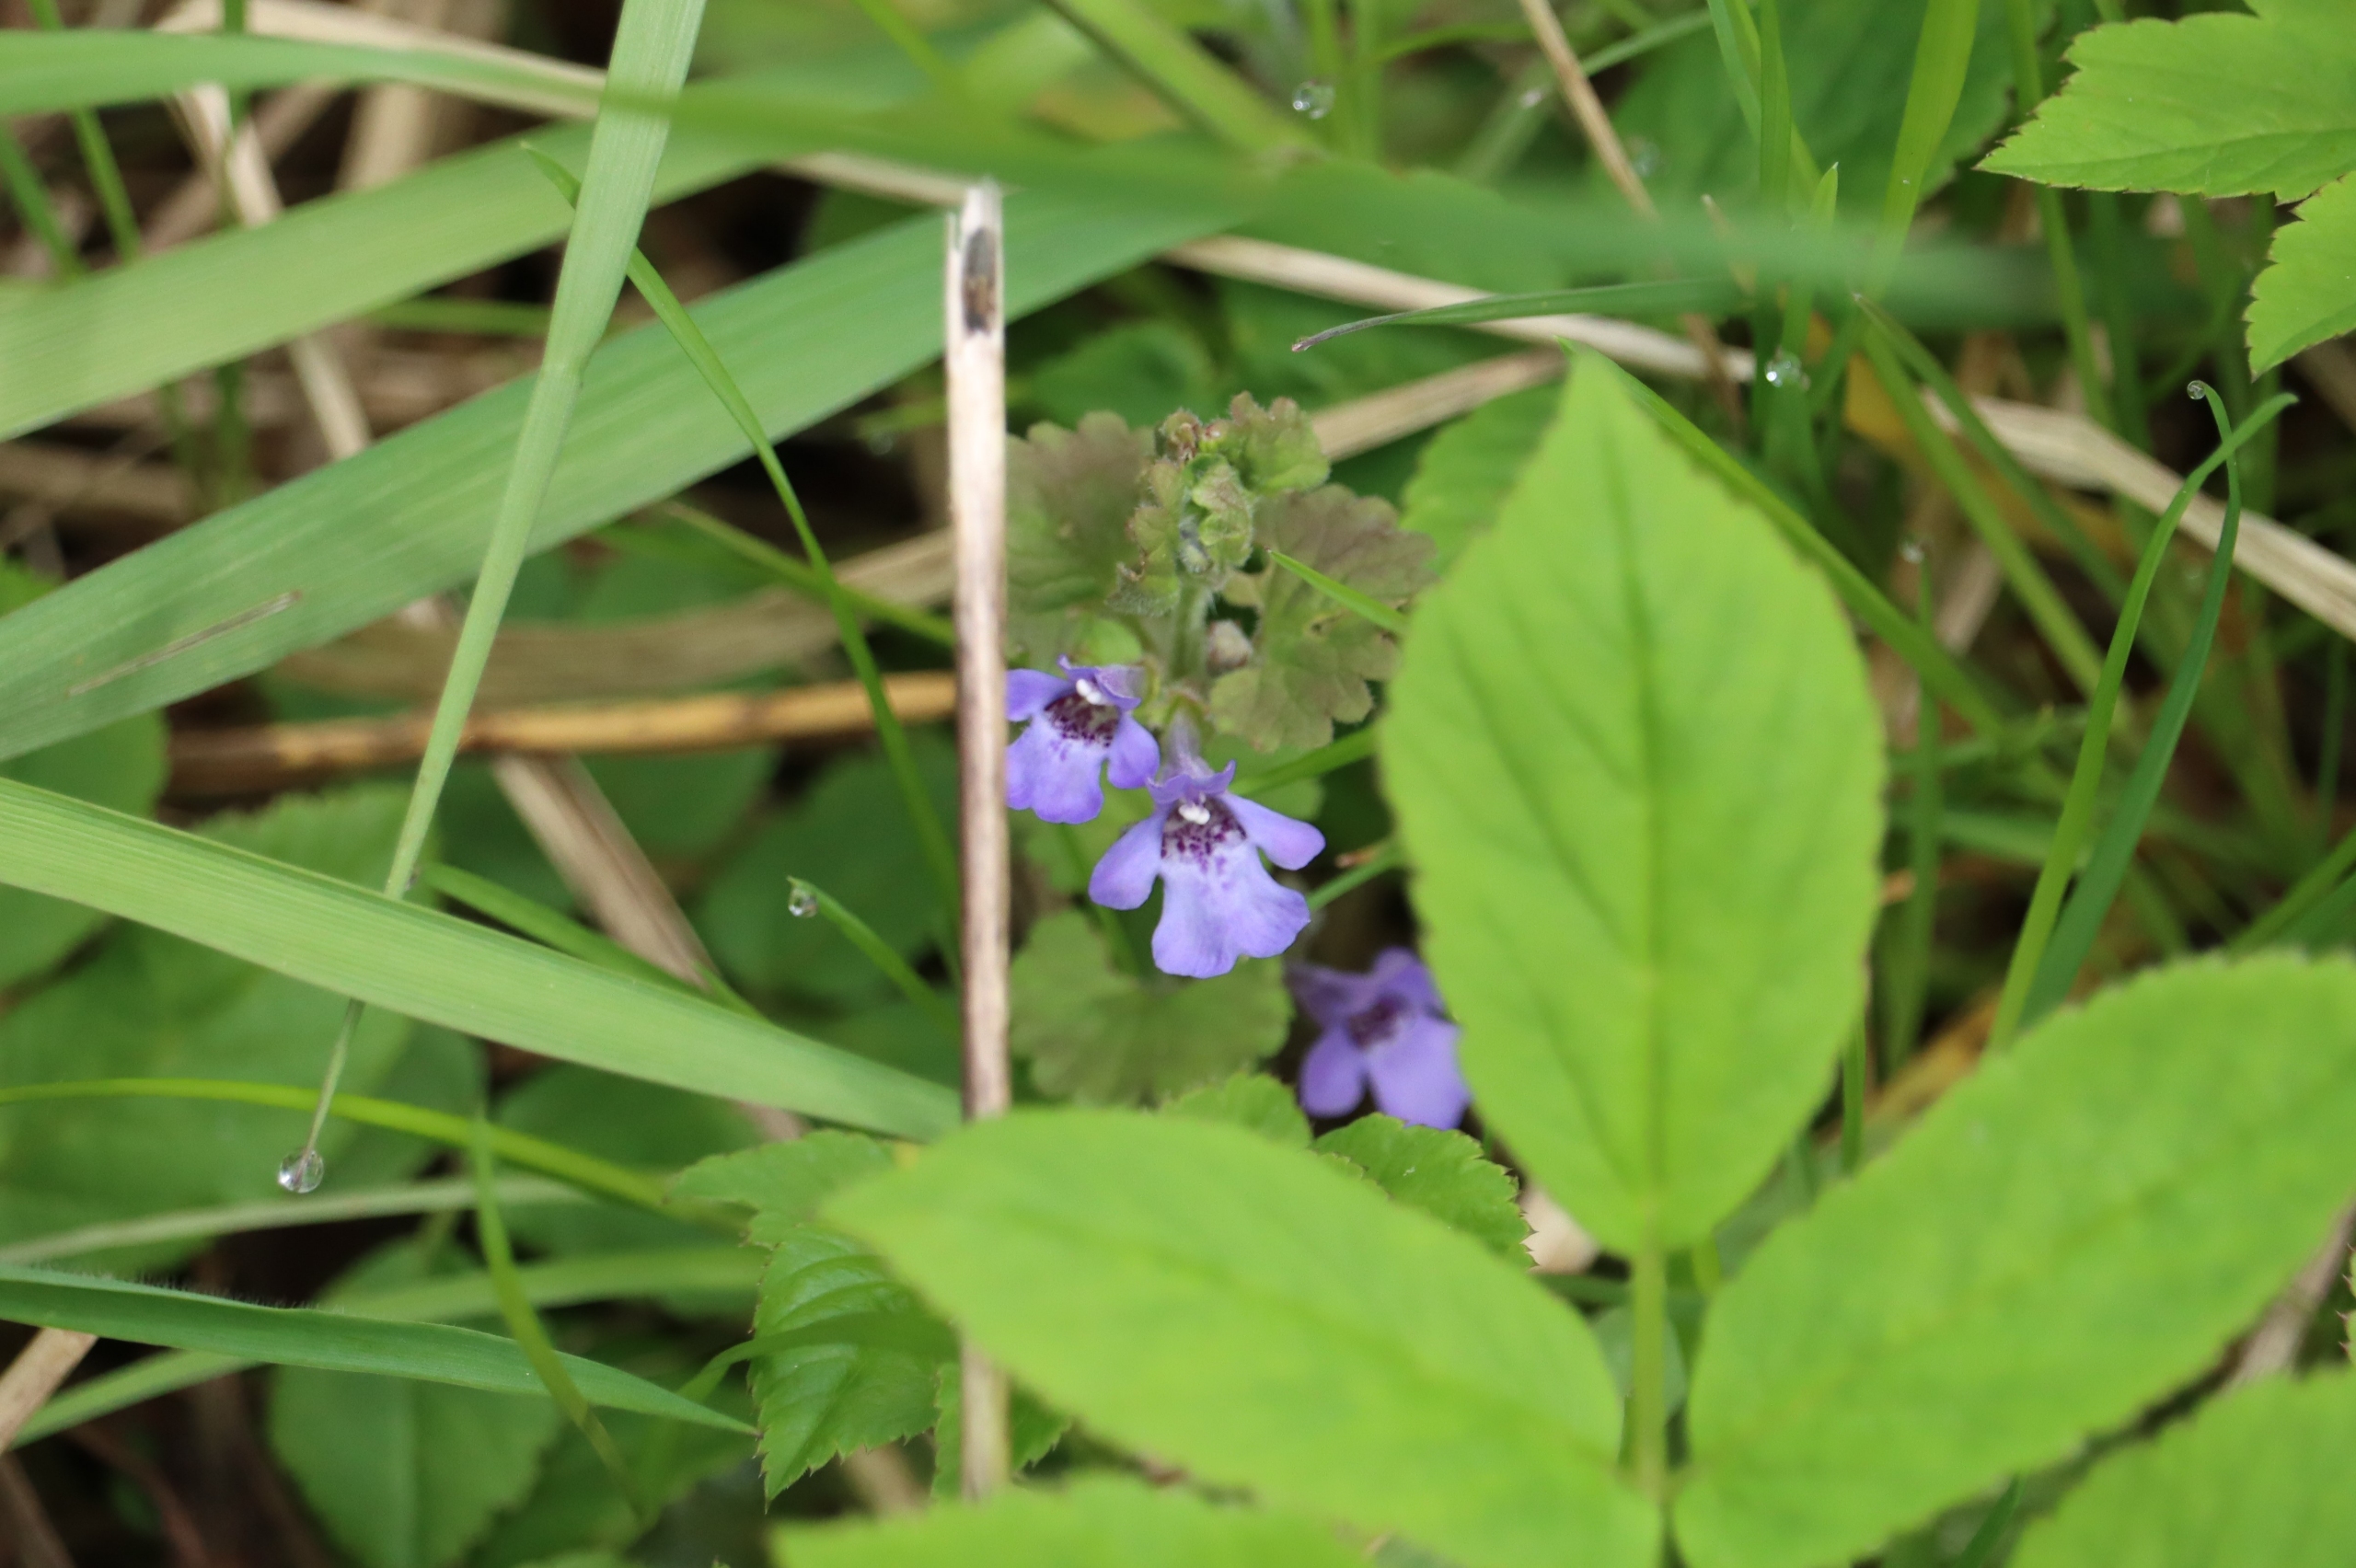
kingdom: Plantae
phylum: Tracheophyta
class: Magnoliopsida
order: Lamiales
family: Lamiaceae
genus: Glechoma
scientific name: Glechoma hederacea
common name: Korsknap
